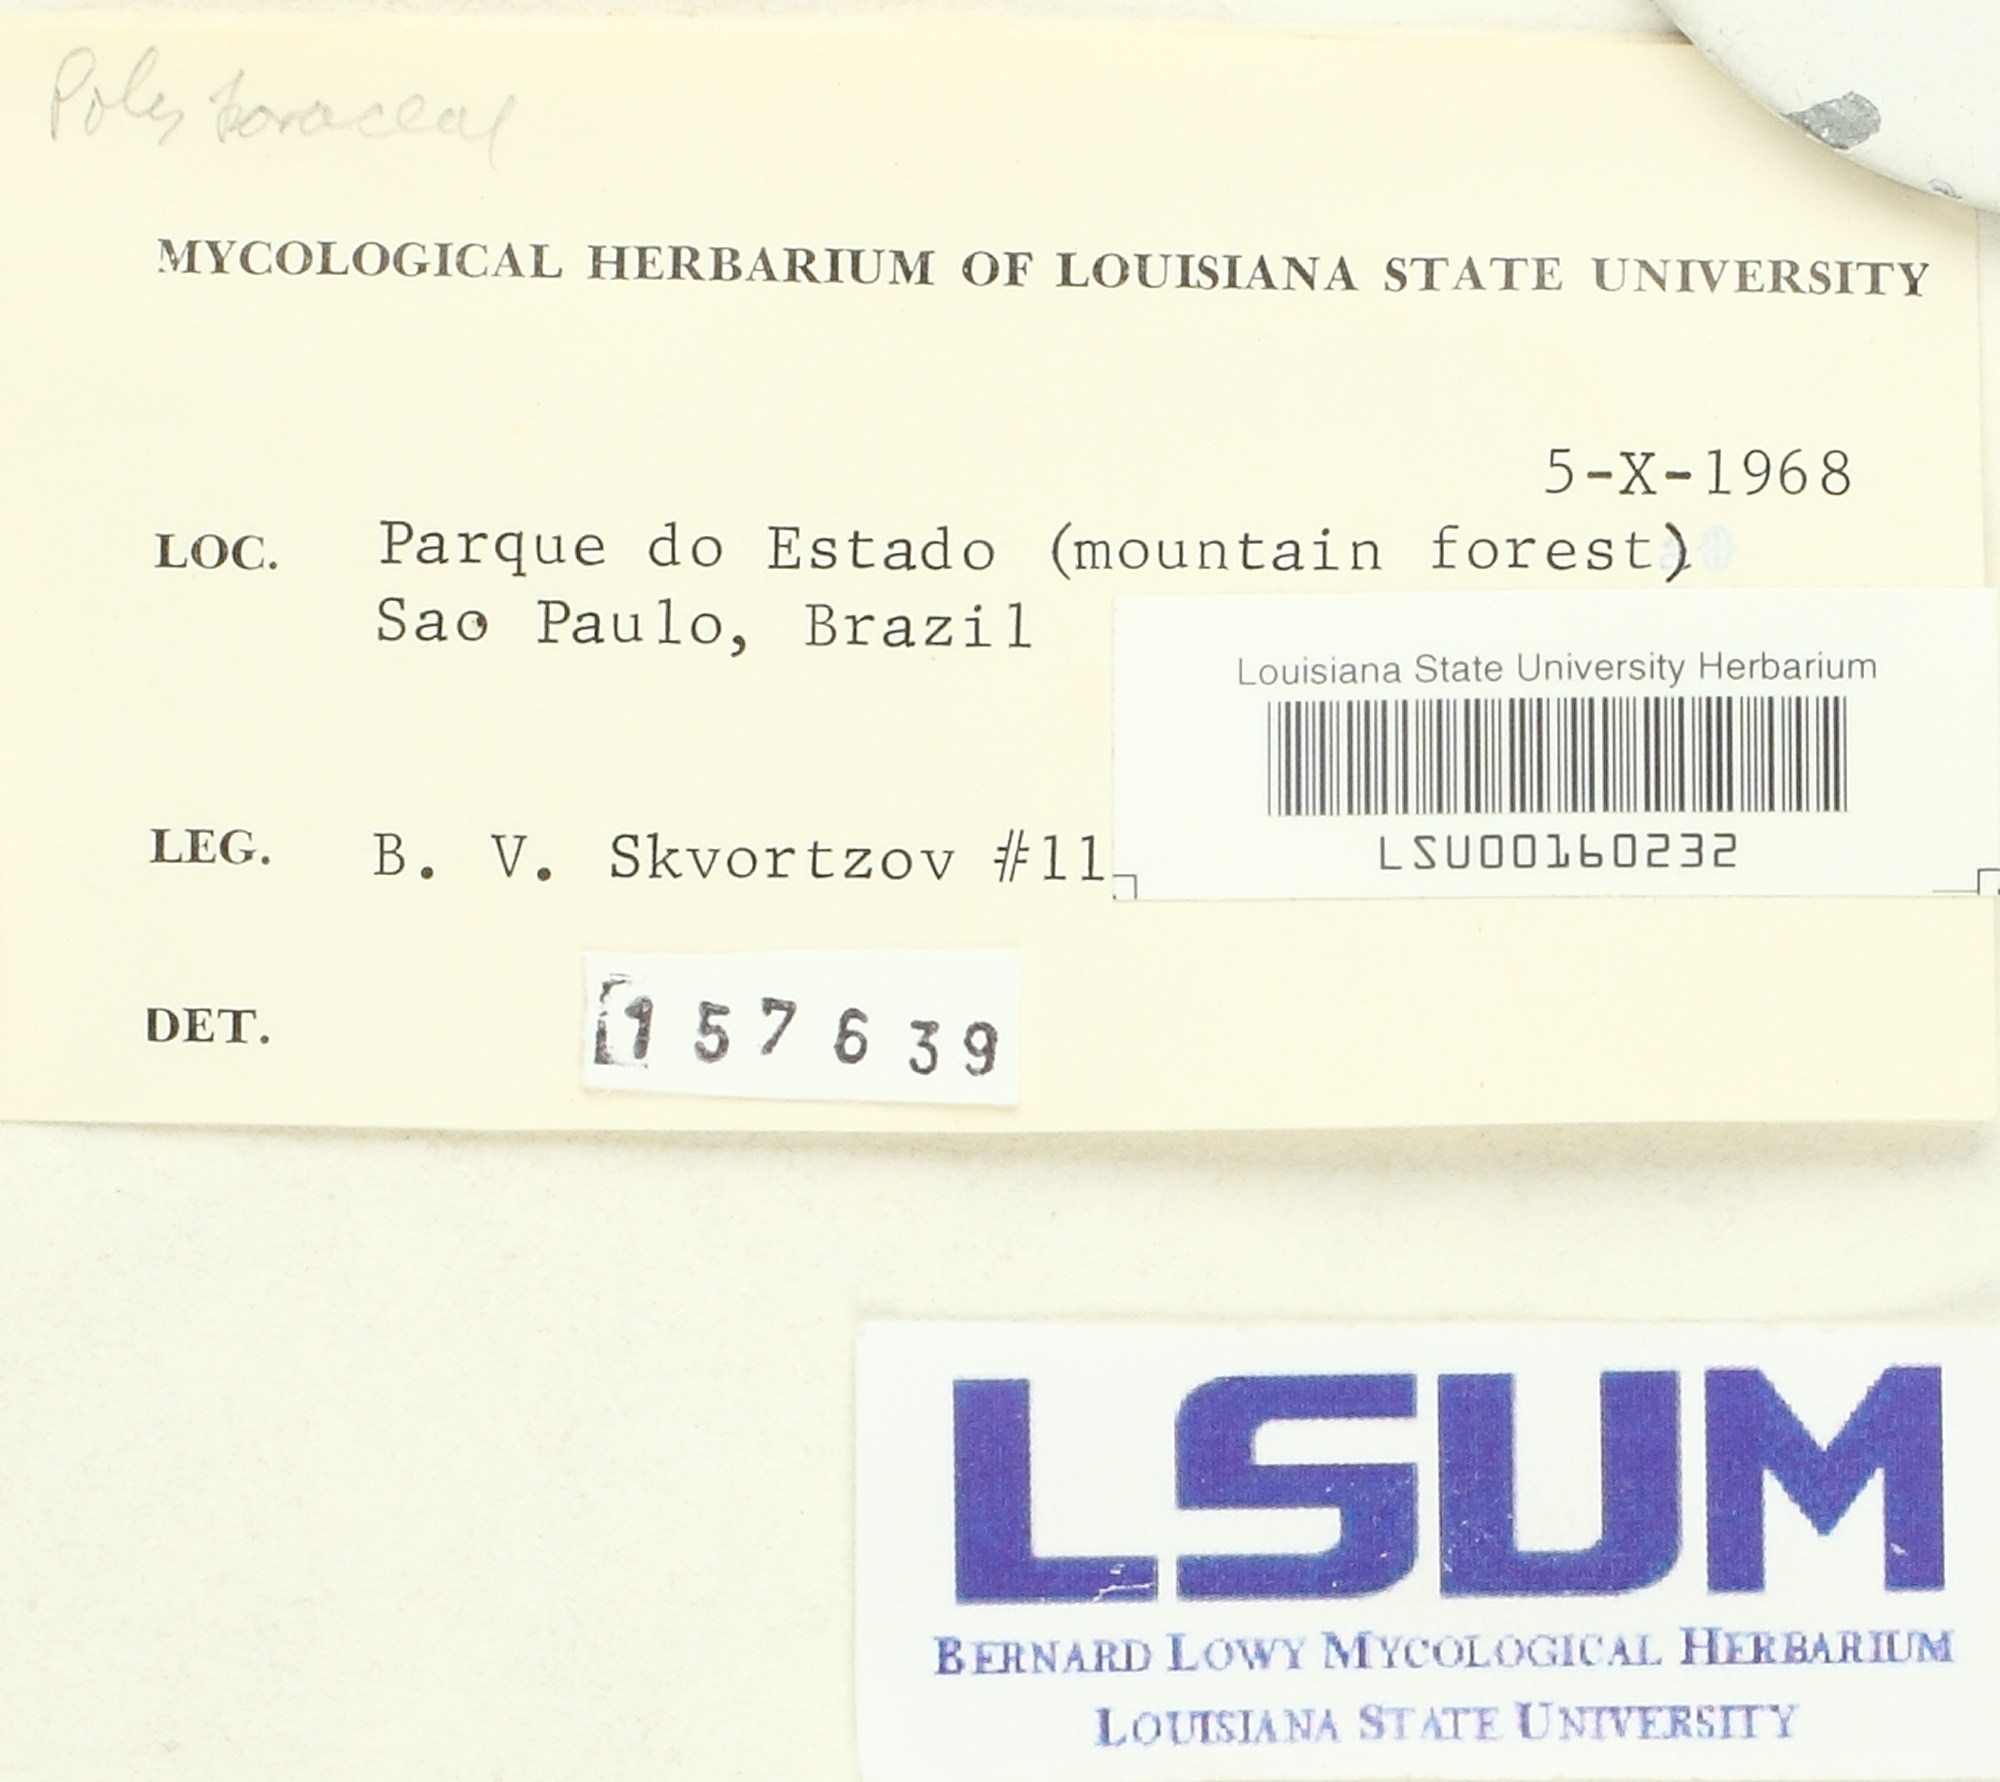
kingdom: Fungi
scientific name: Fungi
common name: Fungi
